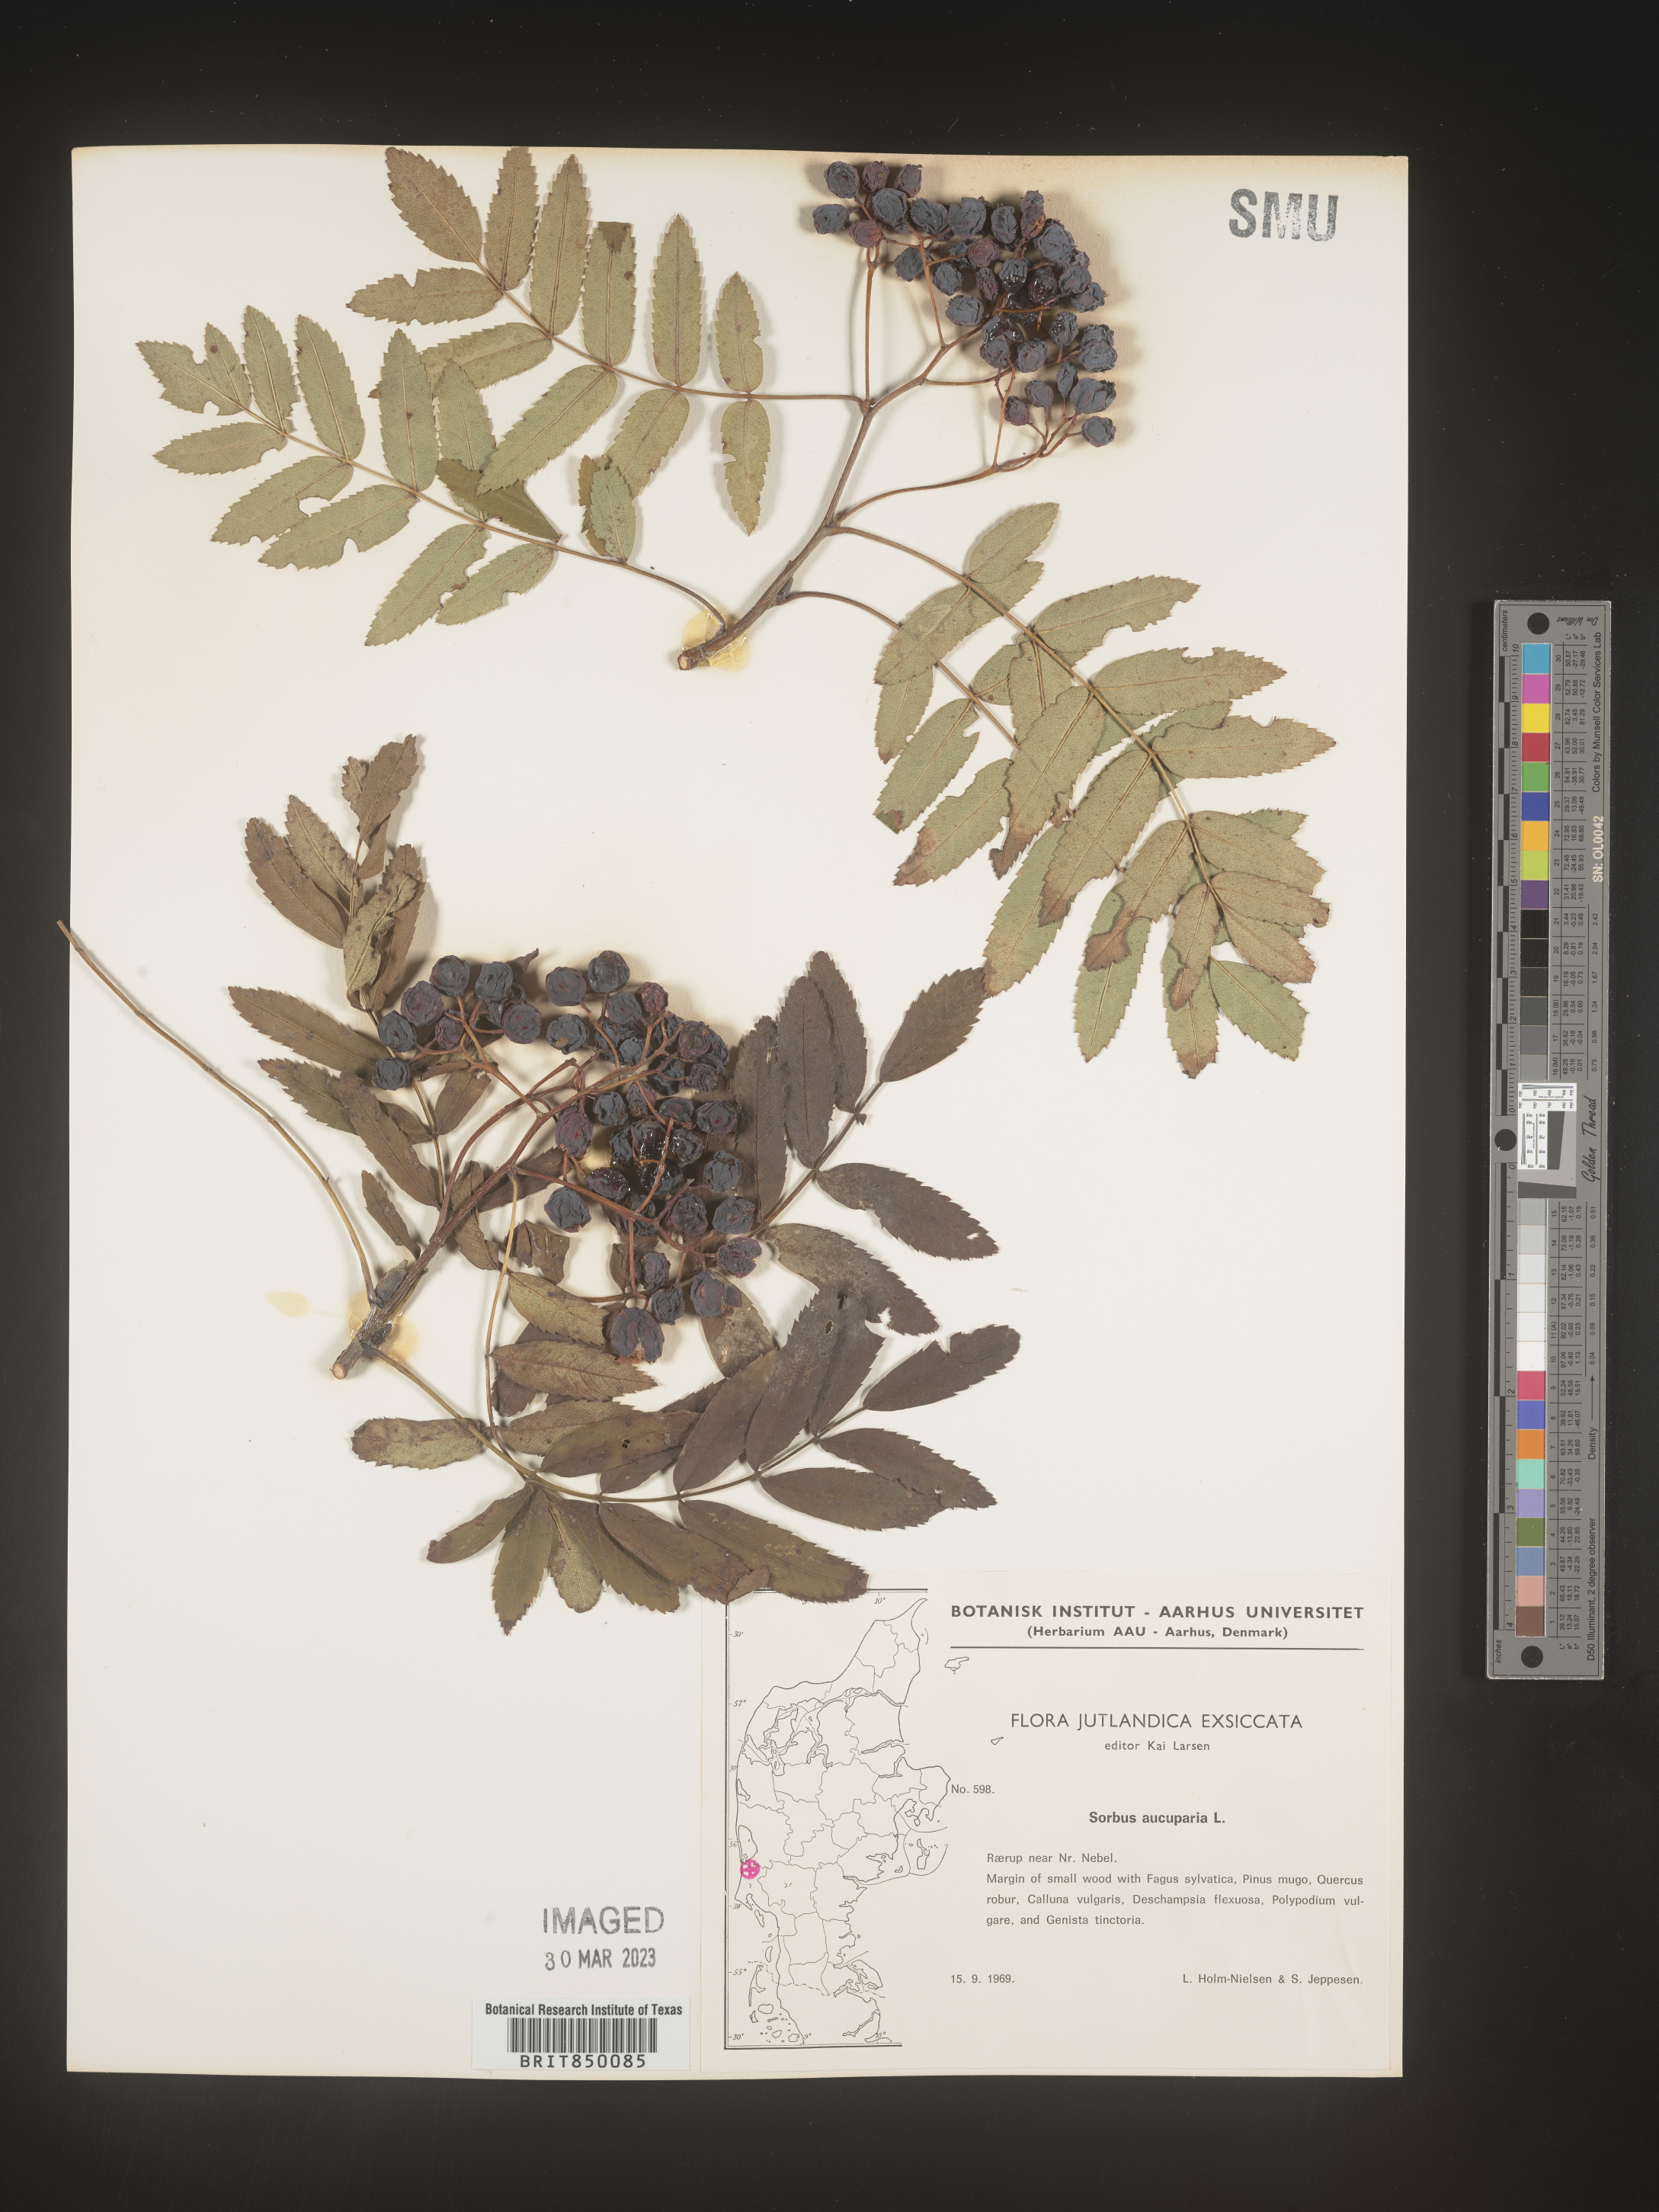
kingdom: Plantae
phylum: Tracheophyta
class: Magnoliopsida
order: Rosales
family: Rosaceae
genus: Sorbus
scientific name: Sorbus
